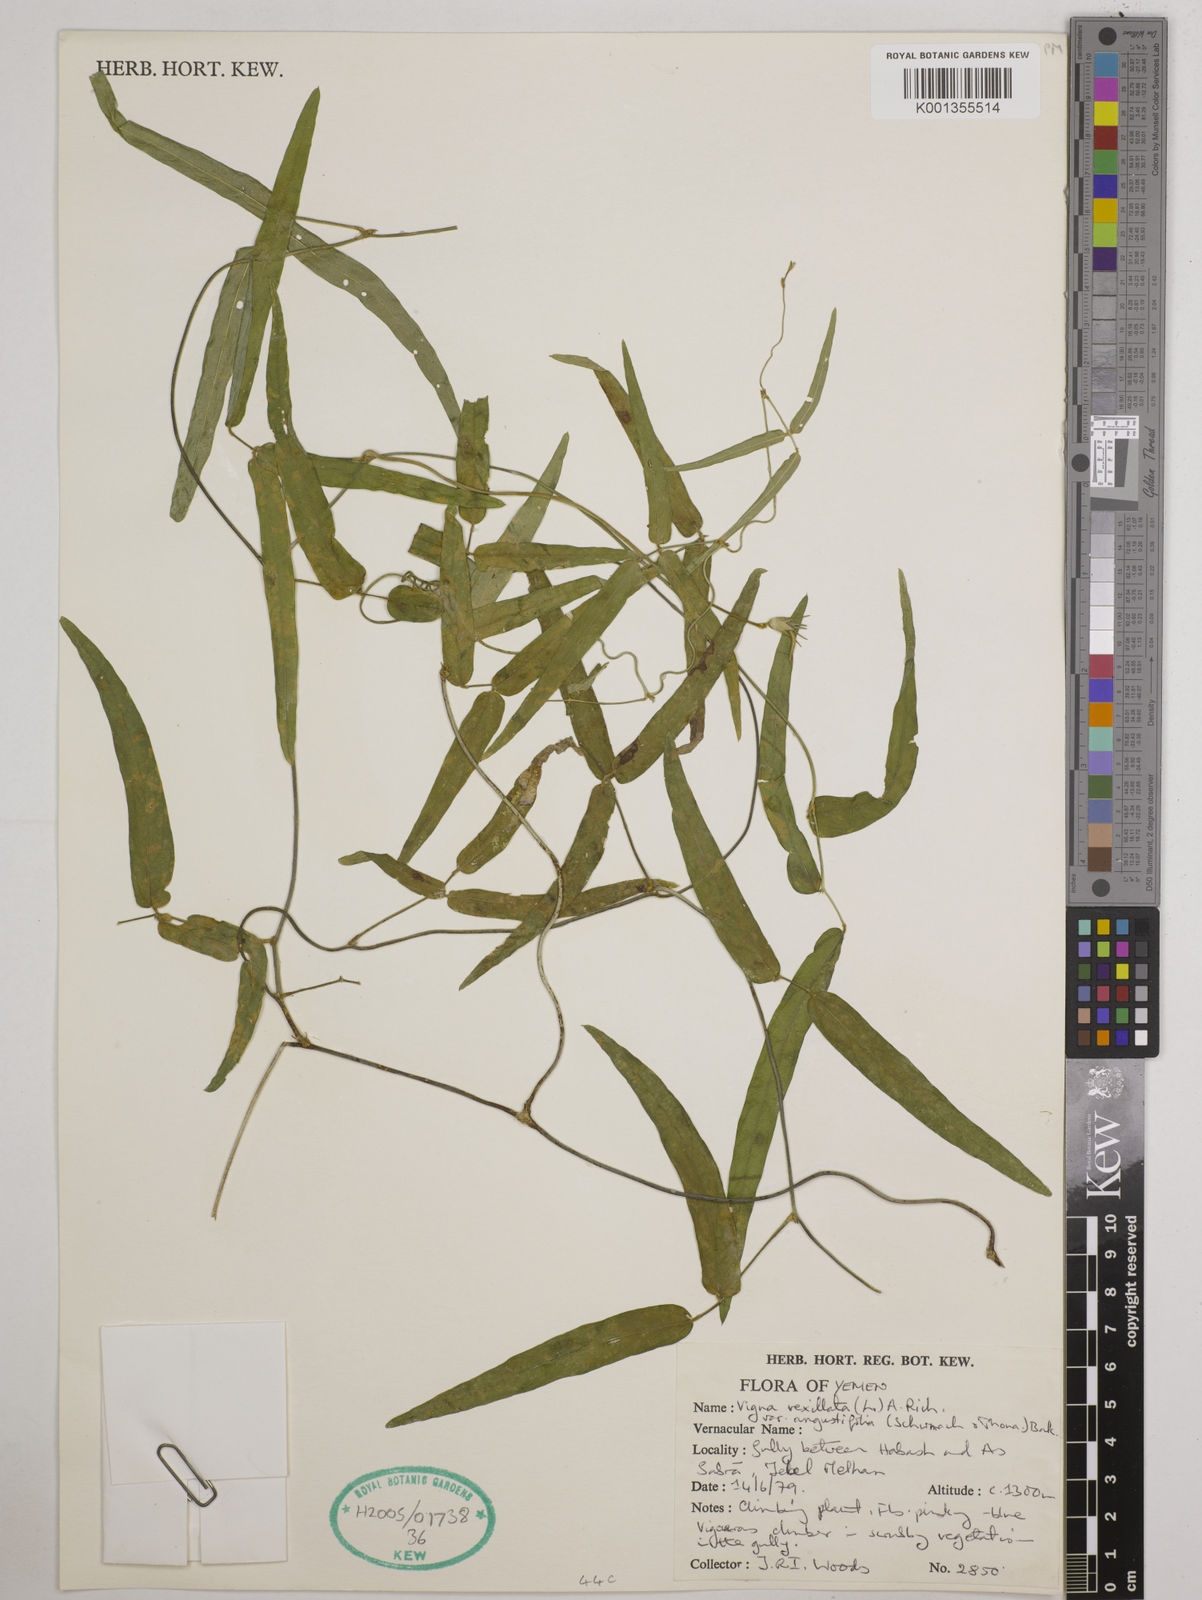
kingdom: Plantae
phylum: Tracheophyta
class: Magnoliopsida
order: Fabales
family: Fabaceae
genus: Vigna
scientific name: Vigna vexillata
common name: Zombi pea
